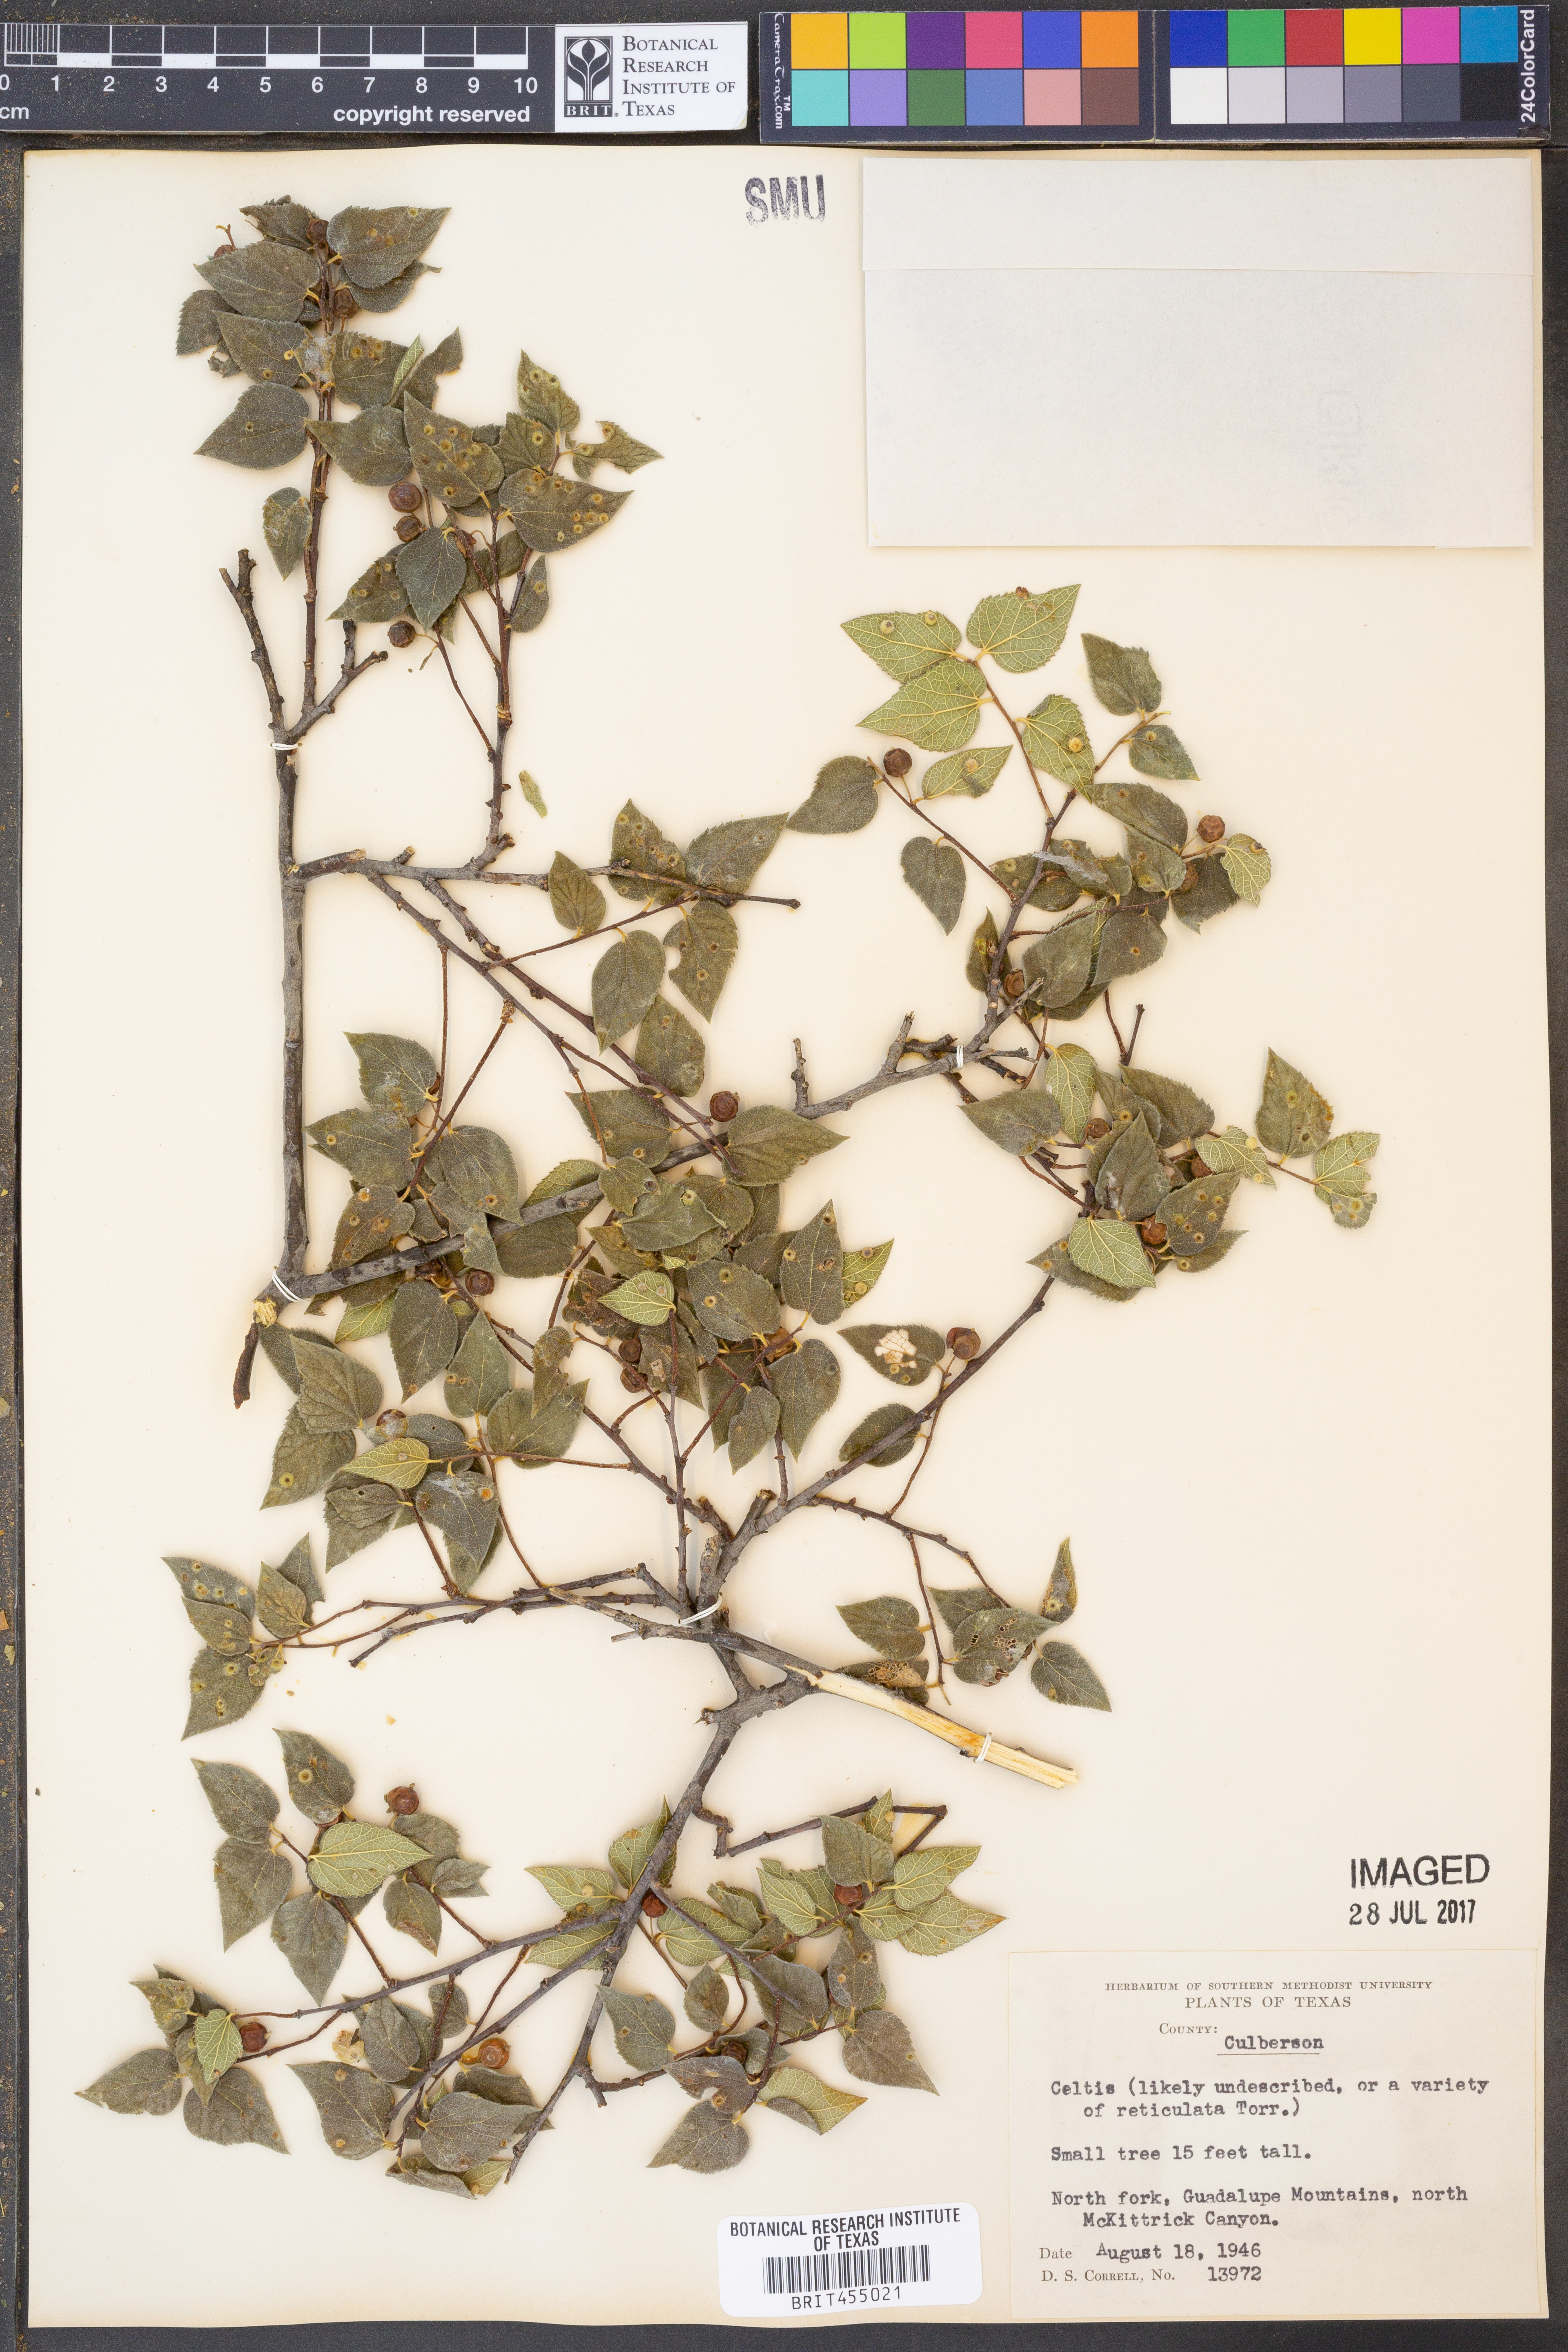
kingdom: Plantae
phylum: Tracheophyta
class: Magnoliopsida
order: Rosales
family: Cannabaceae
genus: Celtis
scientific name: Celtis
